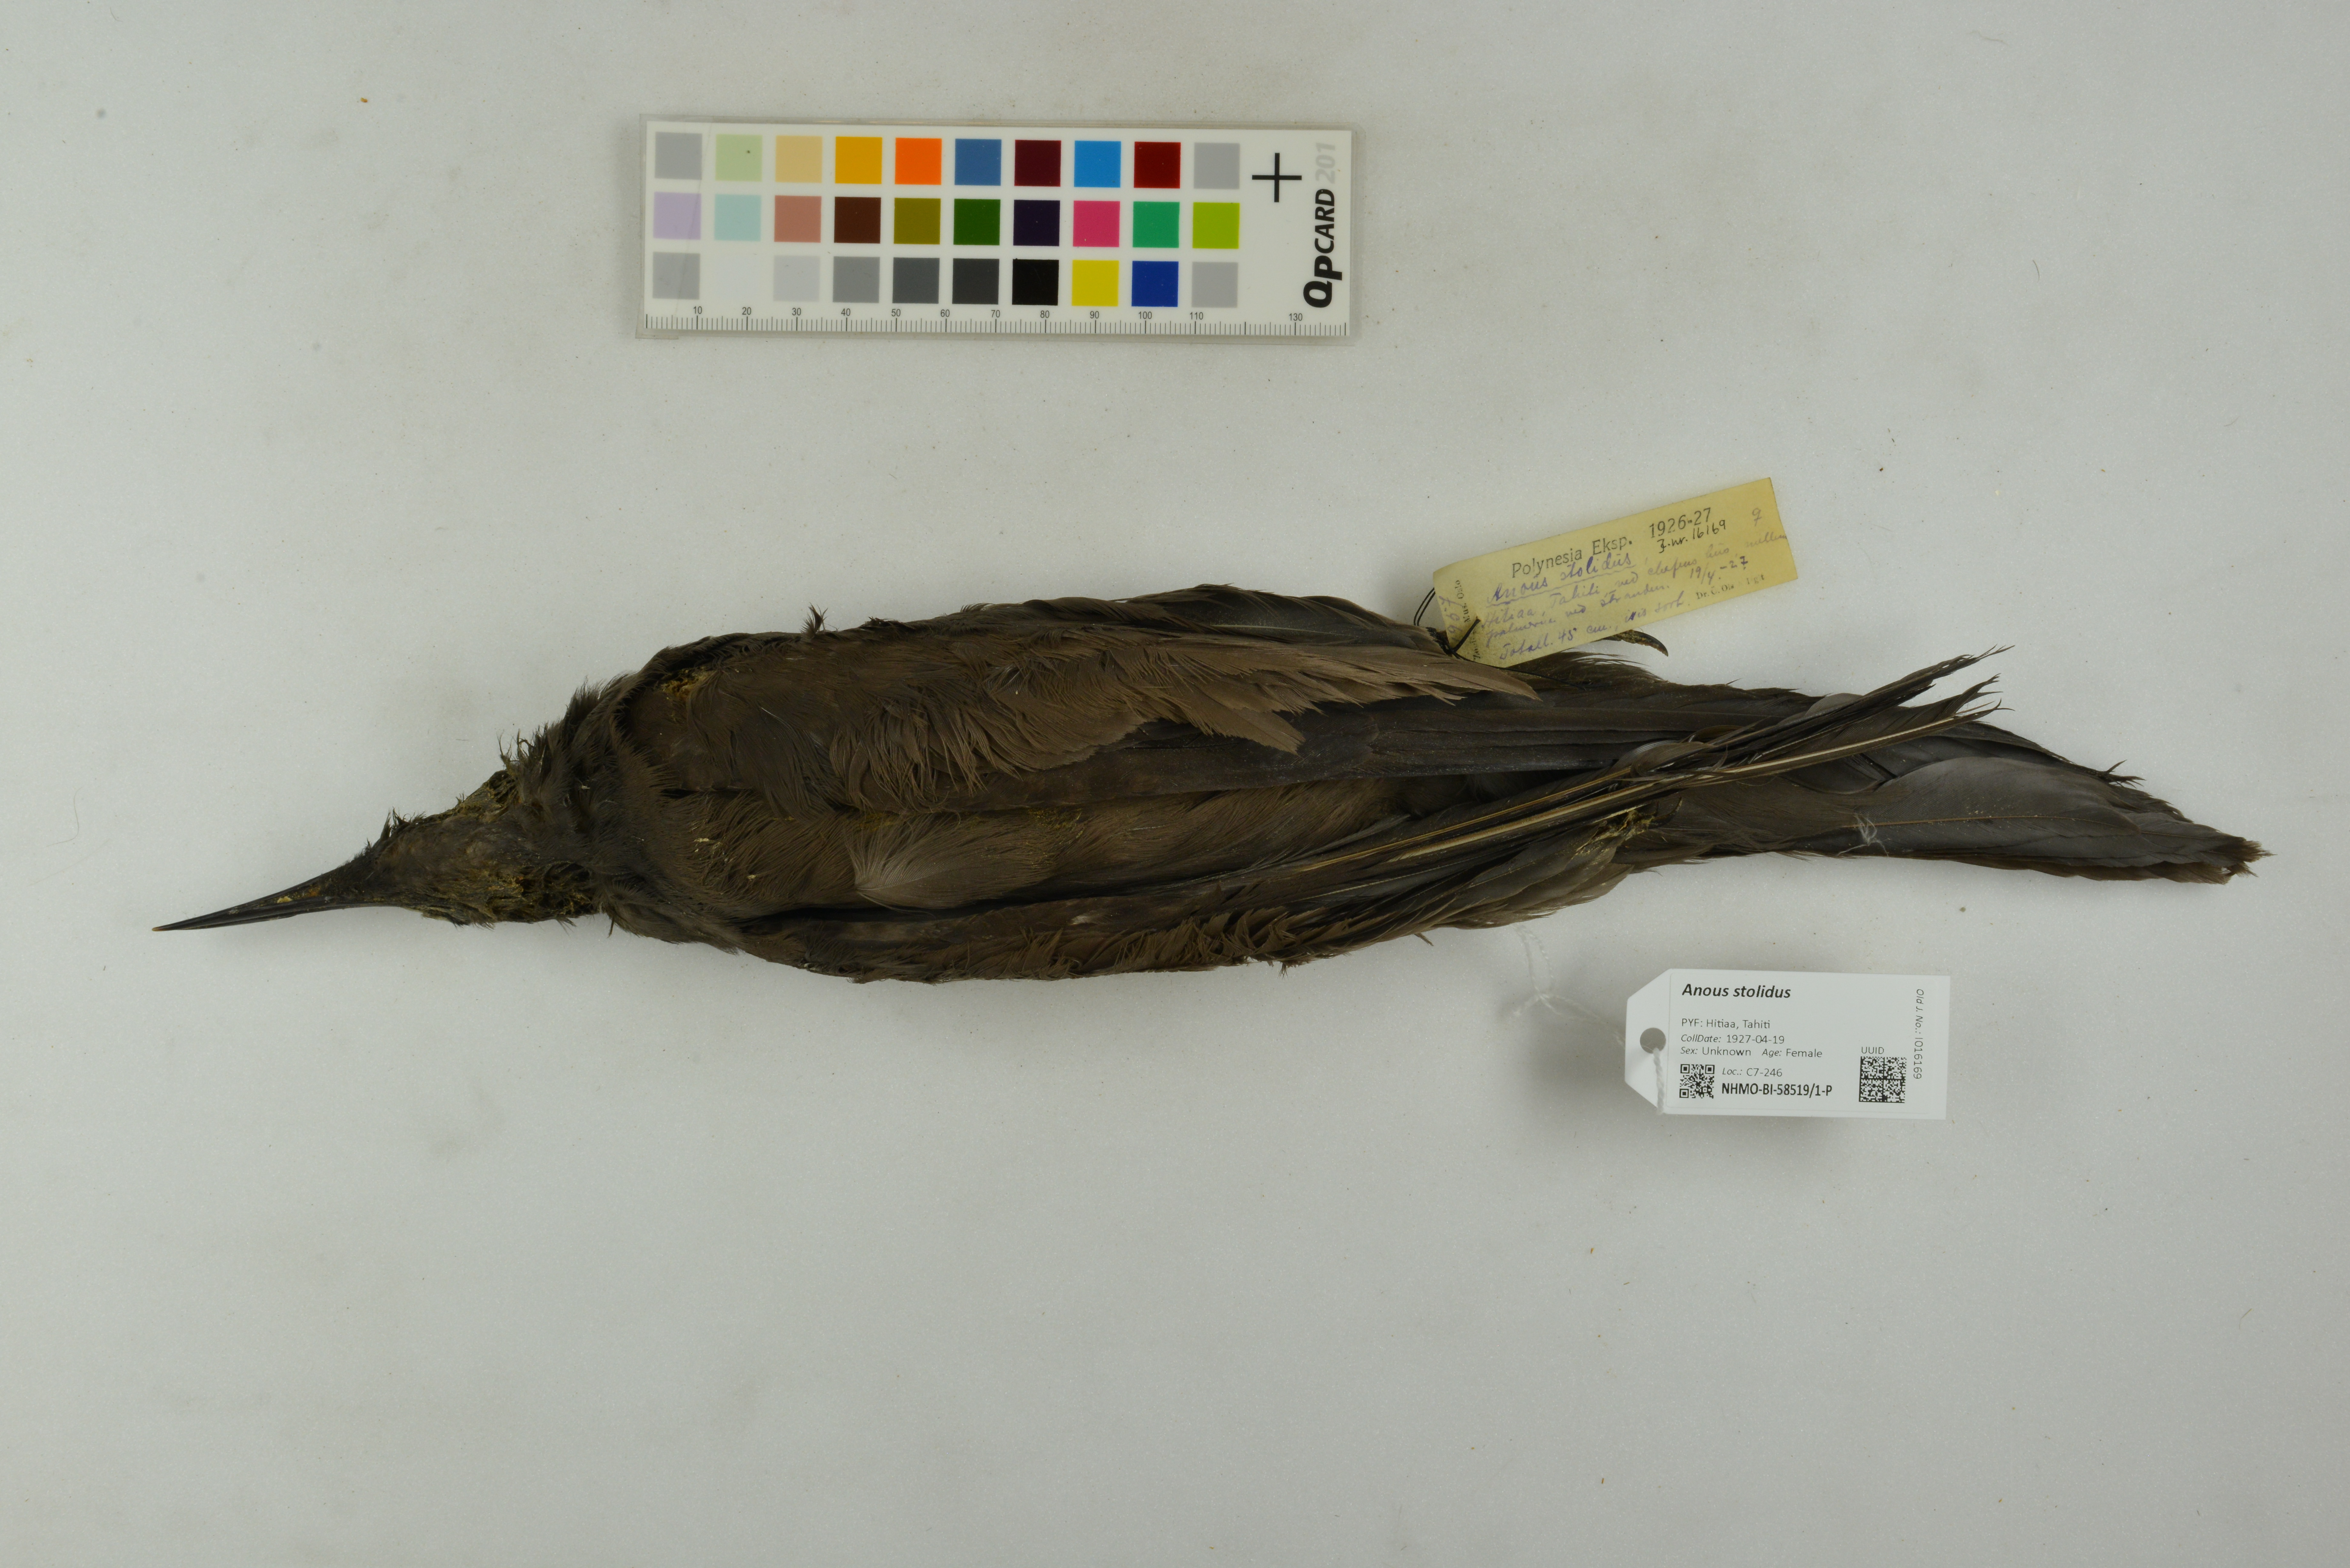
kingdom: Animalia
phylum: Chordata
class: Aves
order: Charadriiformes
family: Laridae
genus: Anous
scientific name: Anous stolidus
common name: Brown noddy
